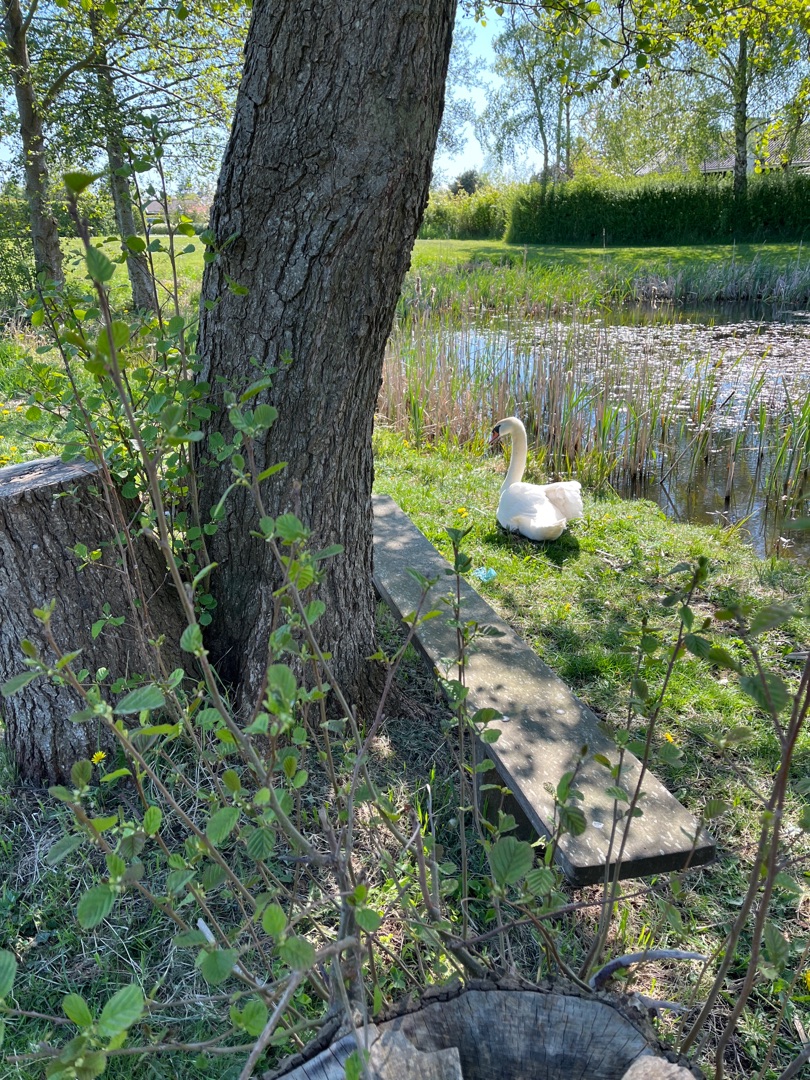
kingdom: Animalia
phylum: Chordata
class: Aves
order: Anseriformes
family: Anatidae
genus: Cygnus
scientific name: Cygnus olor
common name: Knopsvane
